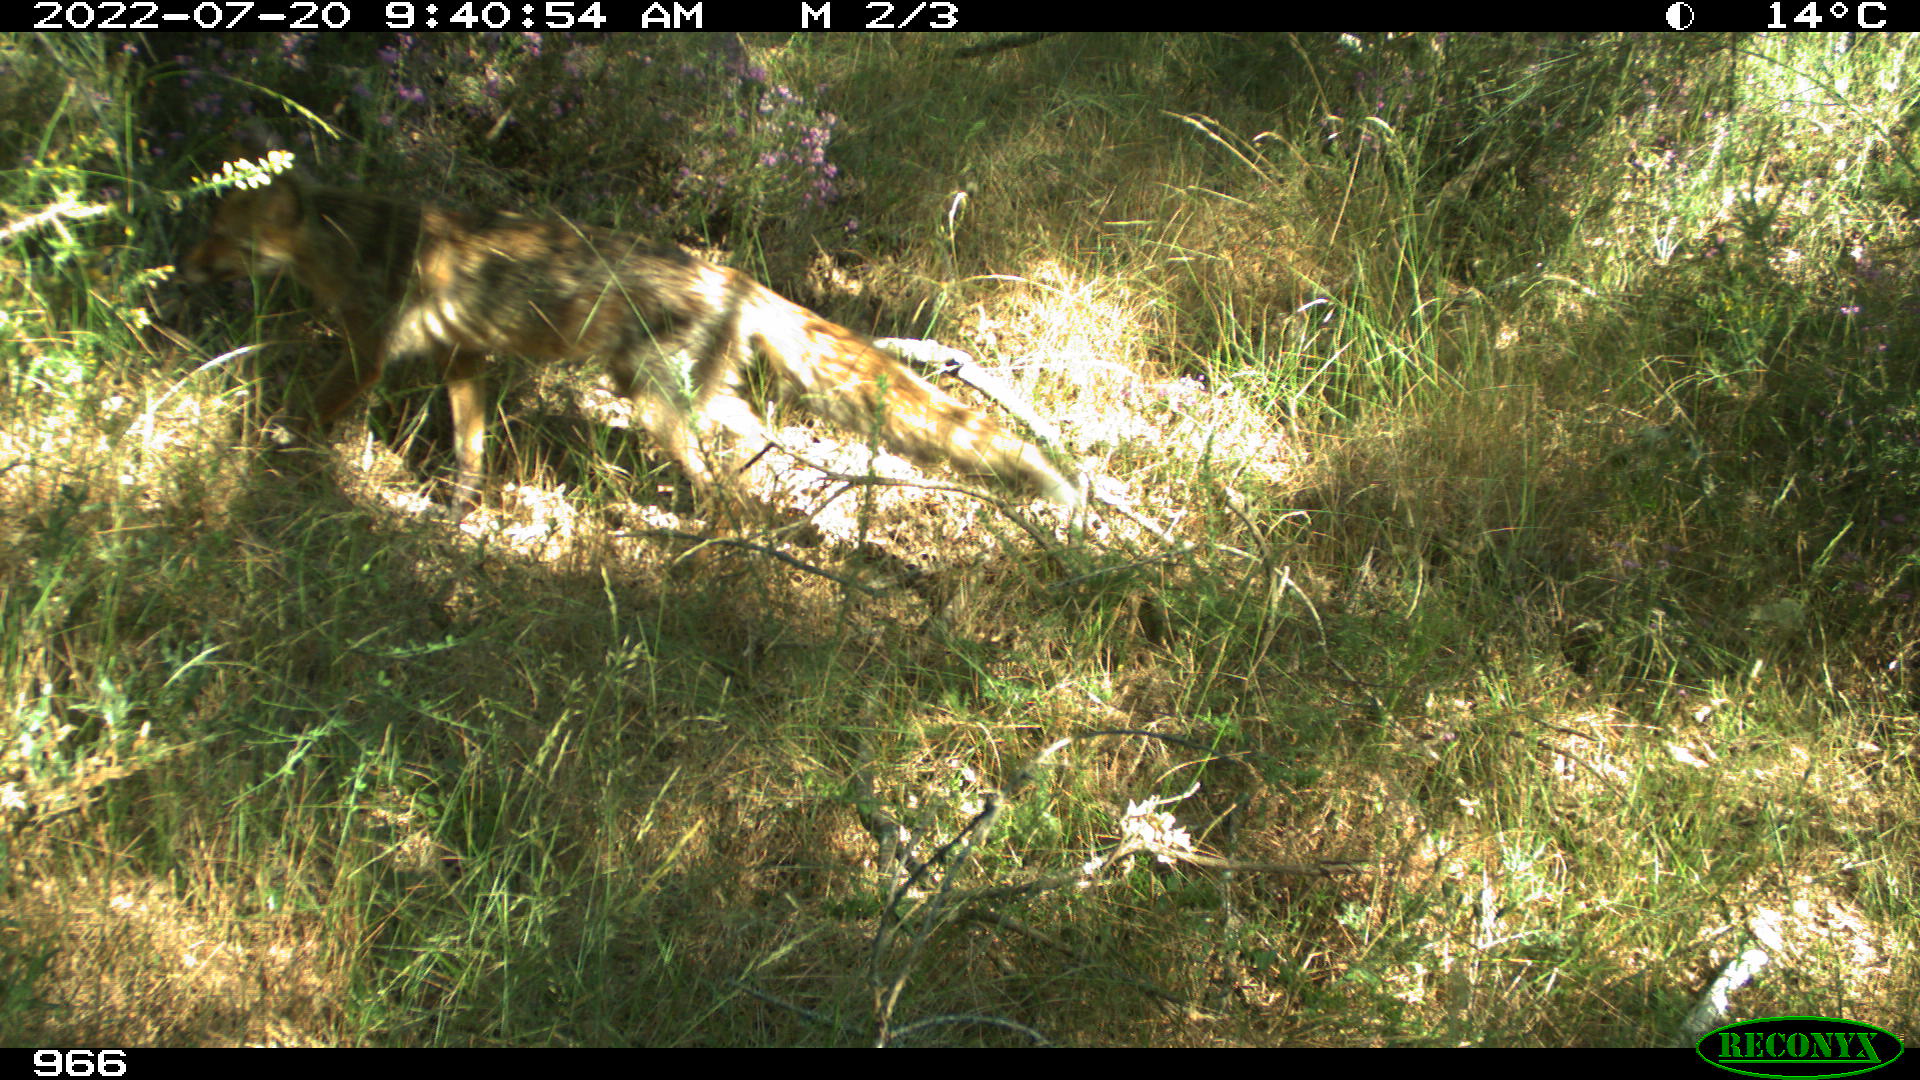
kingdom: Animalia
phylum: Chordata
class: Mammalia
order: Carnivora
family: Canidae
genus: Vulpes
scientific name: Vulpes vulpes
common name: Red fox
